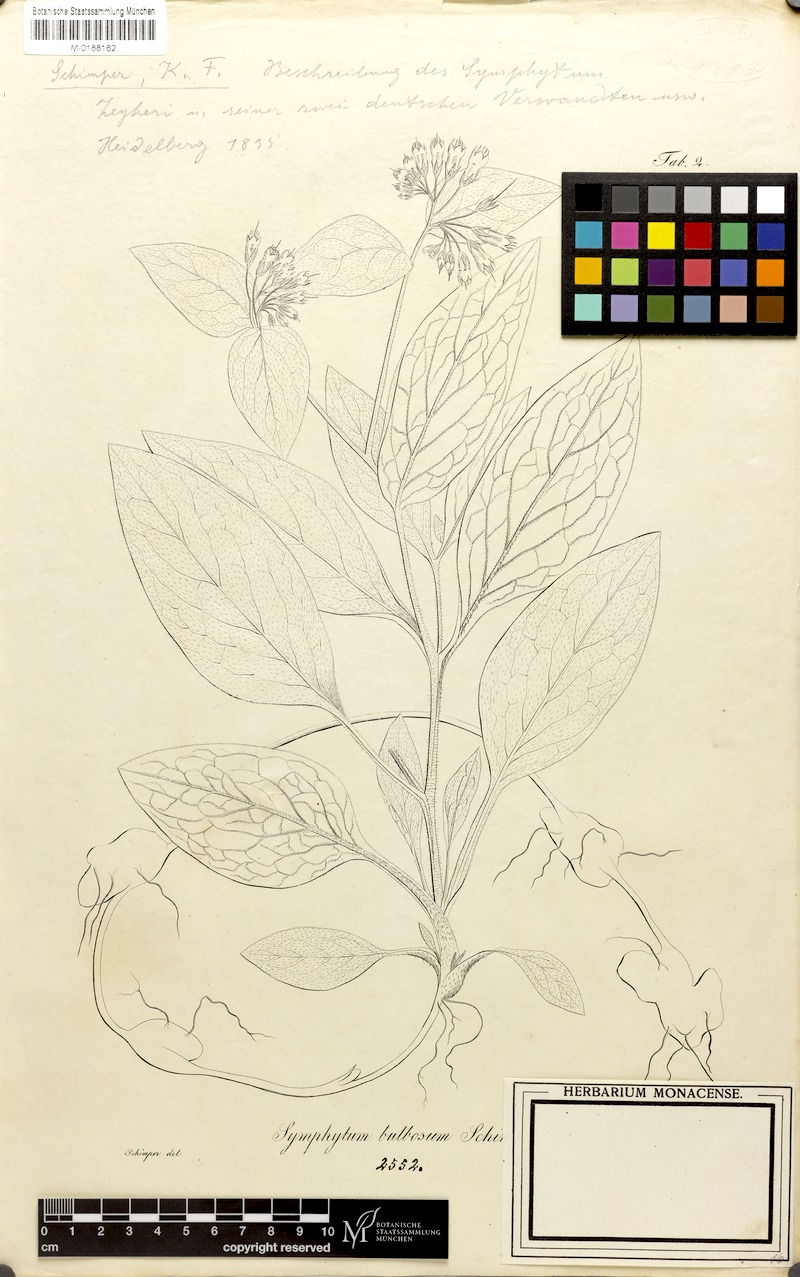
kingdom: Plantae
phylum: Tracheophyta
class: Magnoliopsida
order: Boraginales
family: Boraginaceae
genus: Symphytum
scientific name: Symphytum bulbosum
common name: Bulbous comfrey
